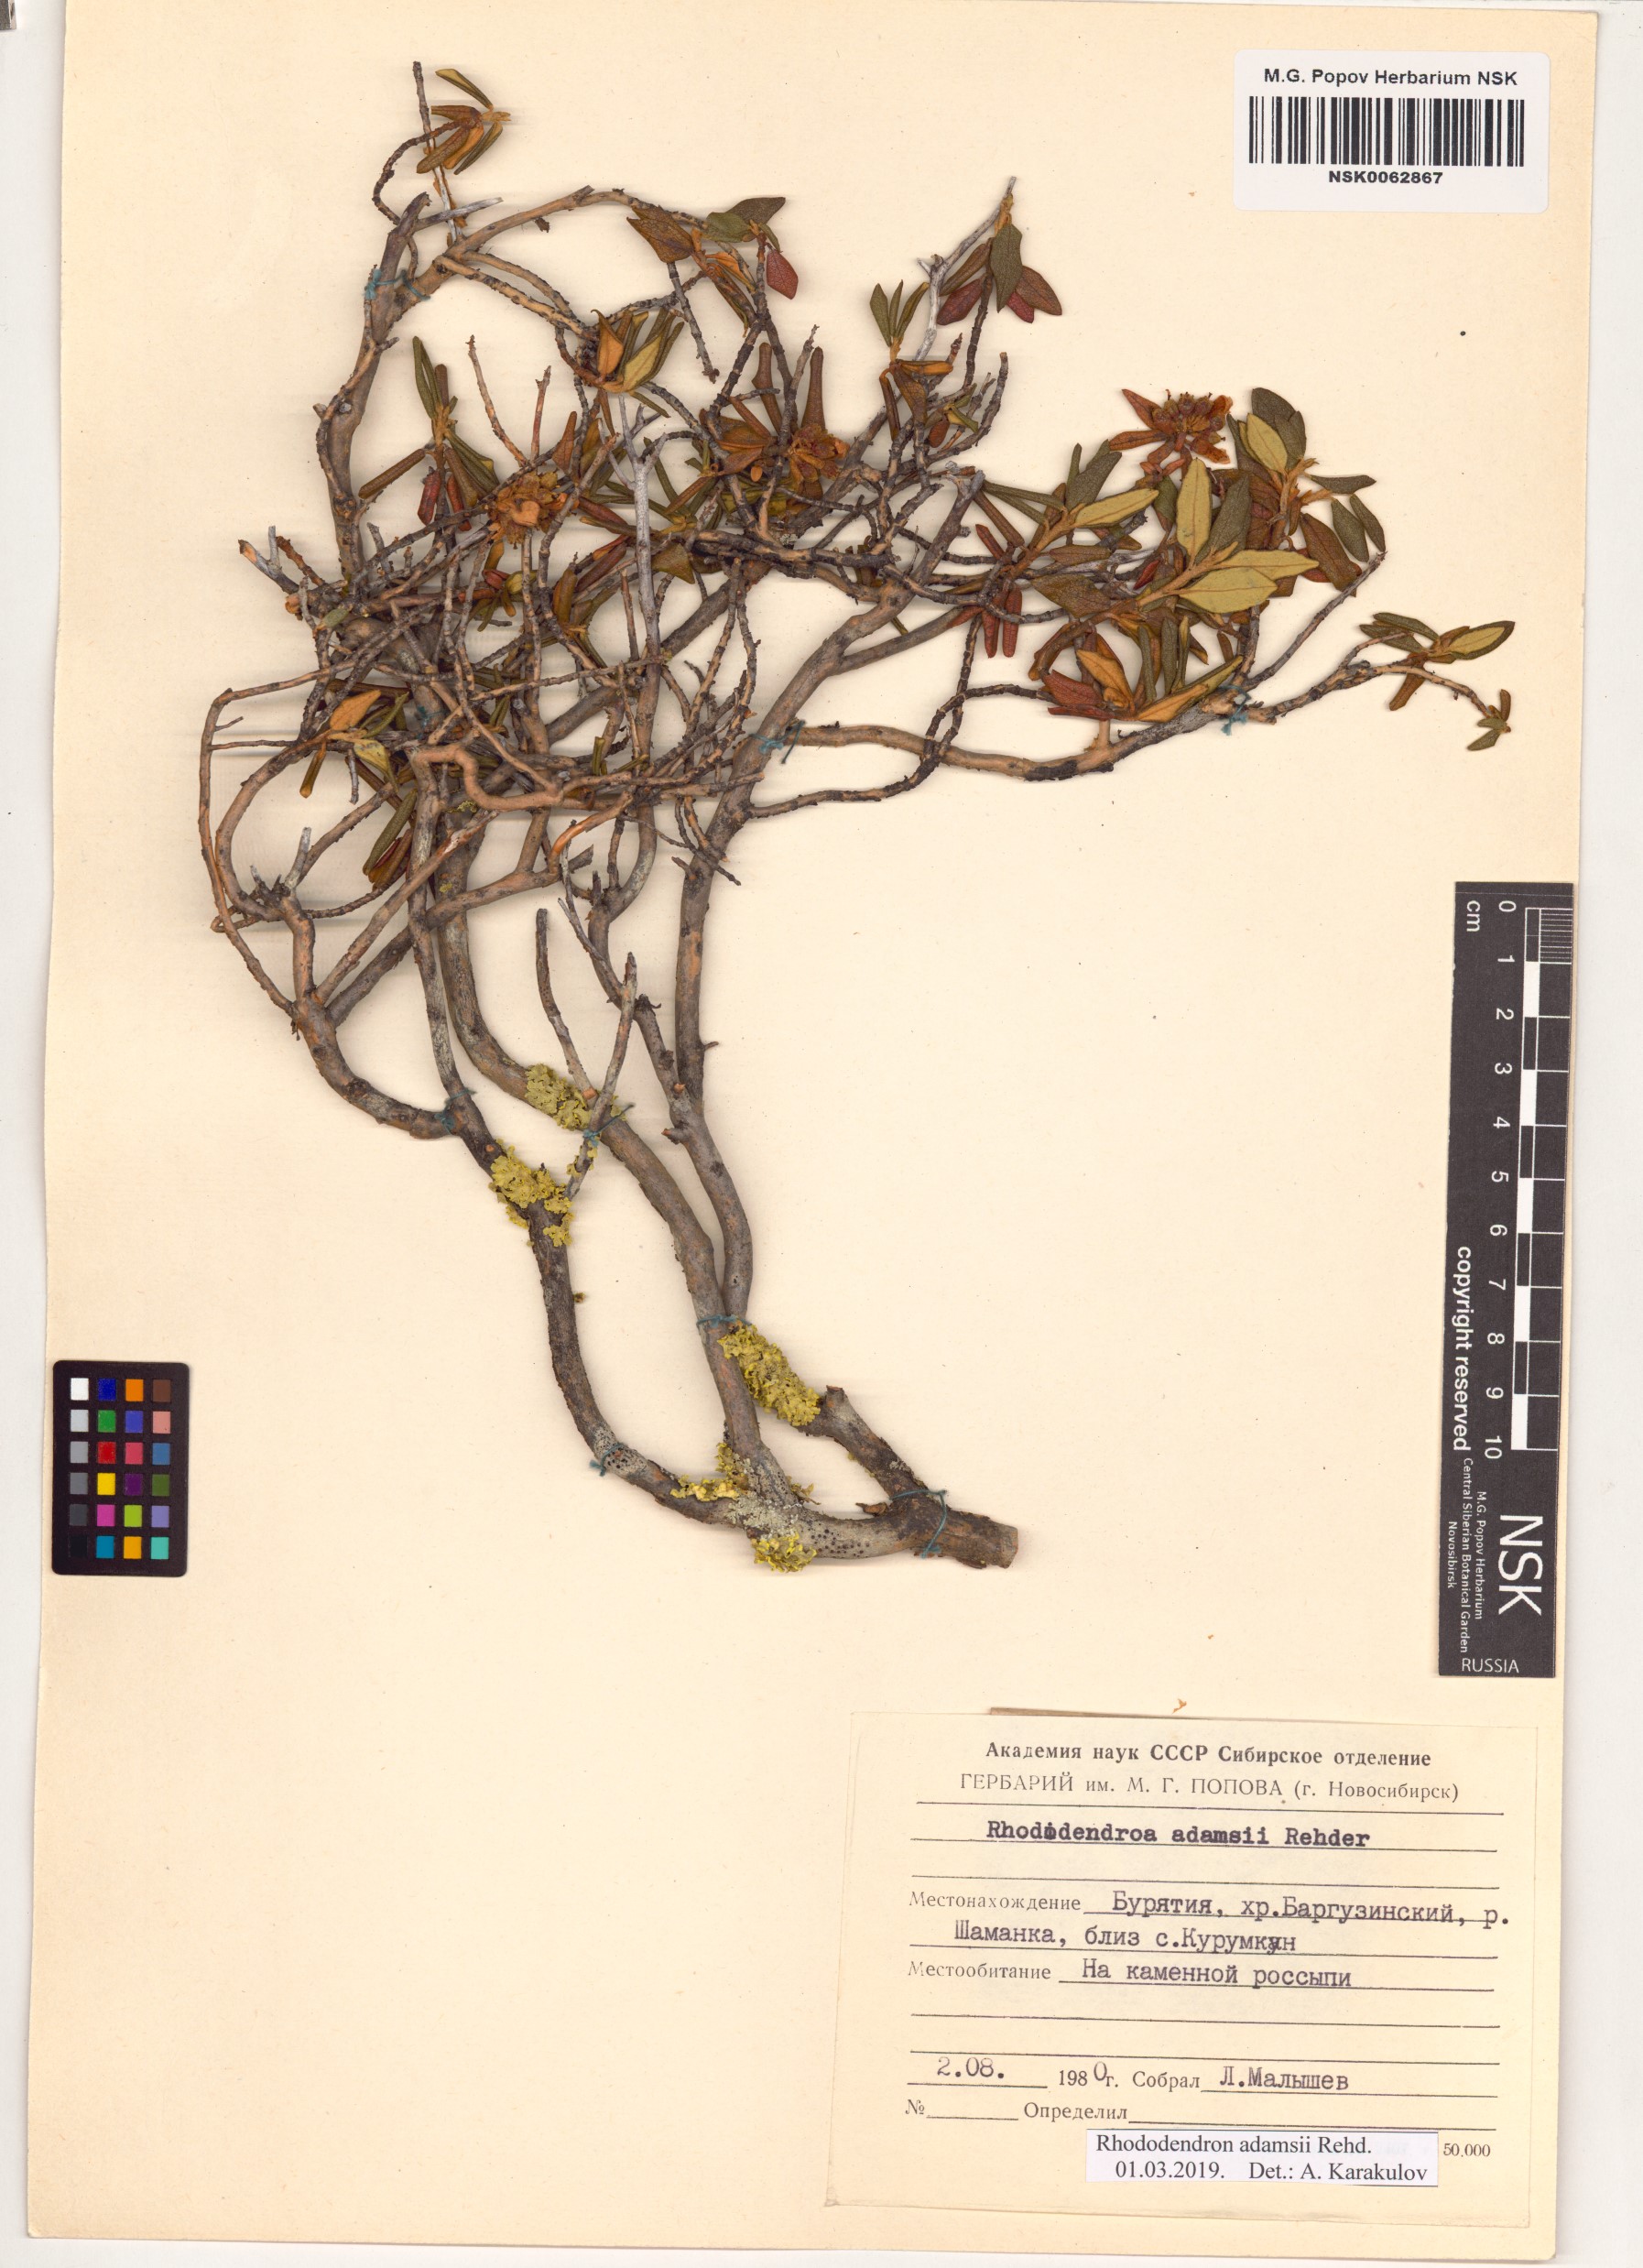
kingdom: Plantae
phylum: Tracheophyta
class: Magnoliopsida
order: Ericales
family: Ericaceae
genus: Rhododendron
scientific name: Rhododendron adamsii
